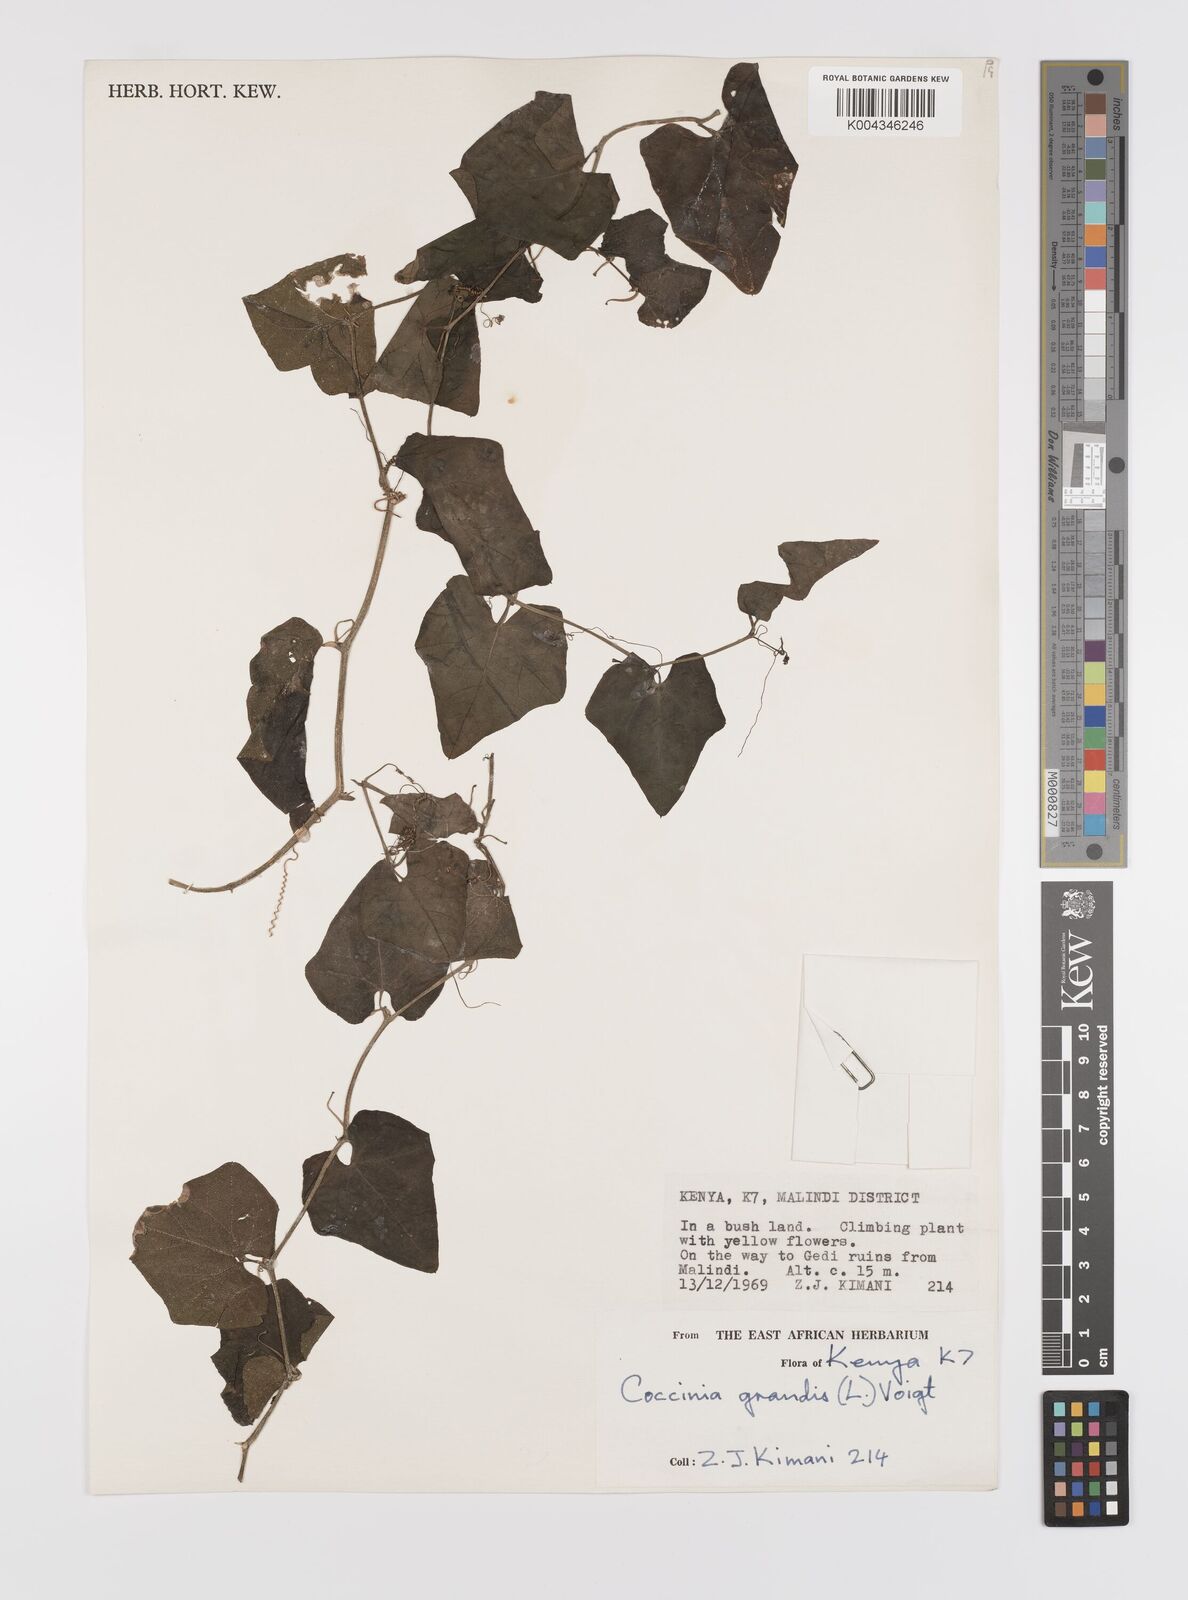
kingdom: Plantae
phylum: Tracheophyta
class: Magnoliopsida
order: Cucurbitales
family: Cucurbitaceae
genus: Coccinia
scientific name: Coccinia grandis
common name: Ivy gourd
